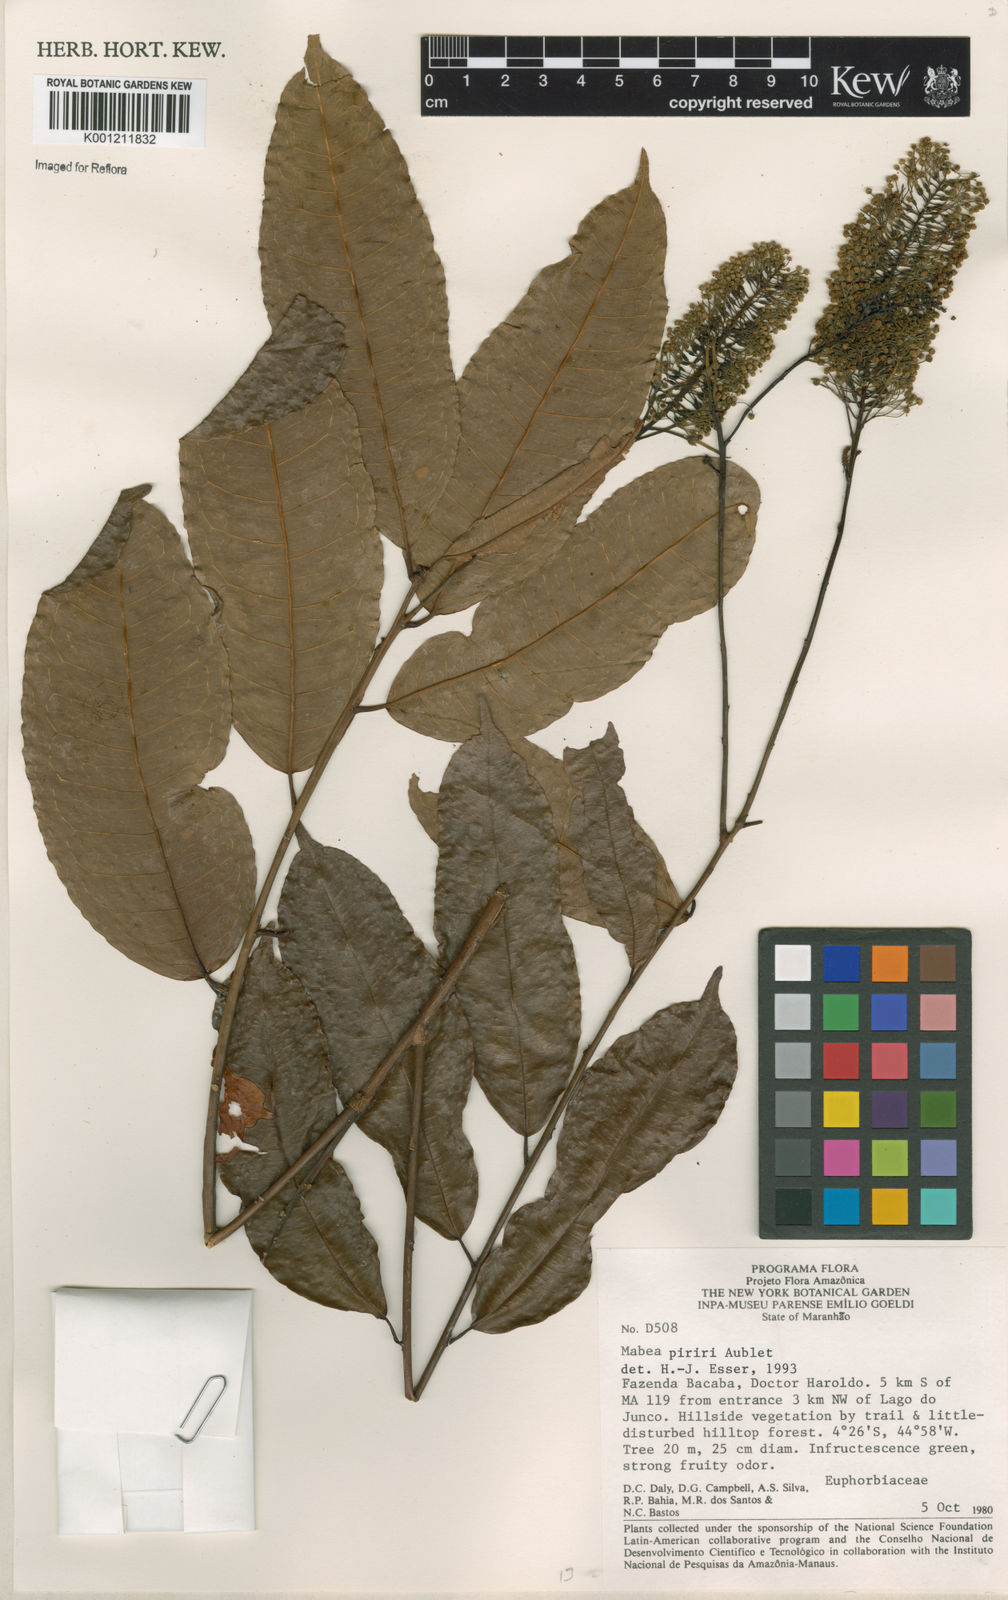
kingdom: Plantae
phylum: Tracheophyta
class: Magnoliopsida
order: Malpighiales
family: Euphorbiaceae
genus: Mabea
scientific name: Mabea piriri
